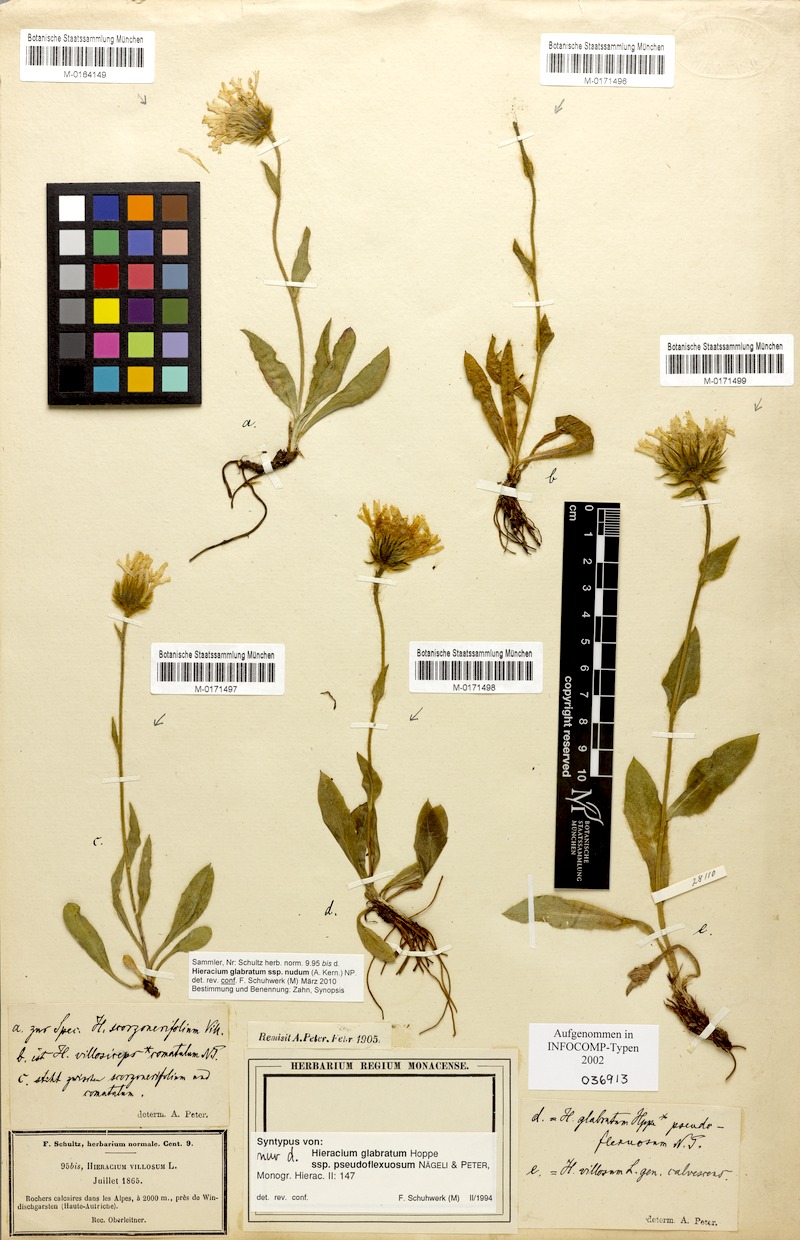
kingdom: Plantae
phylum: Tracheophyta
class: Magnoliopsida
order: Asterales
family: Asteraceae
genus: Hieracium
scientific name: Hieracium glabratum
